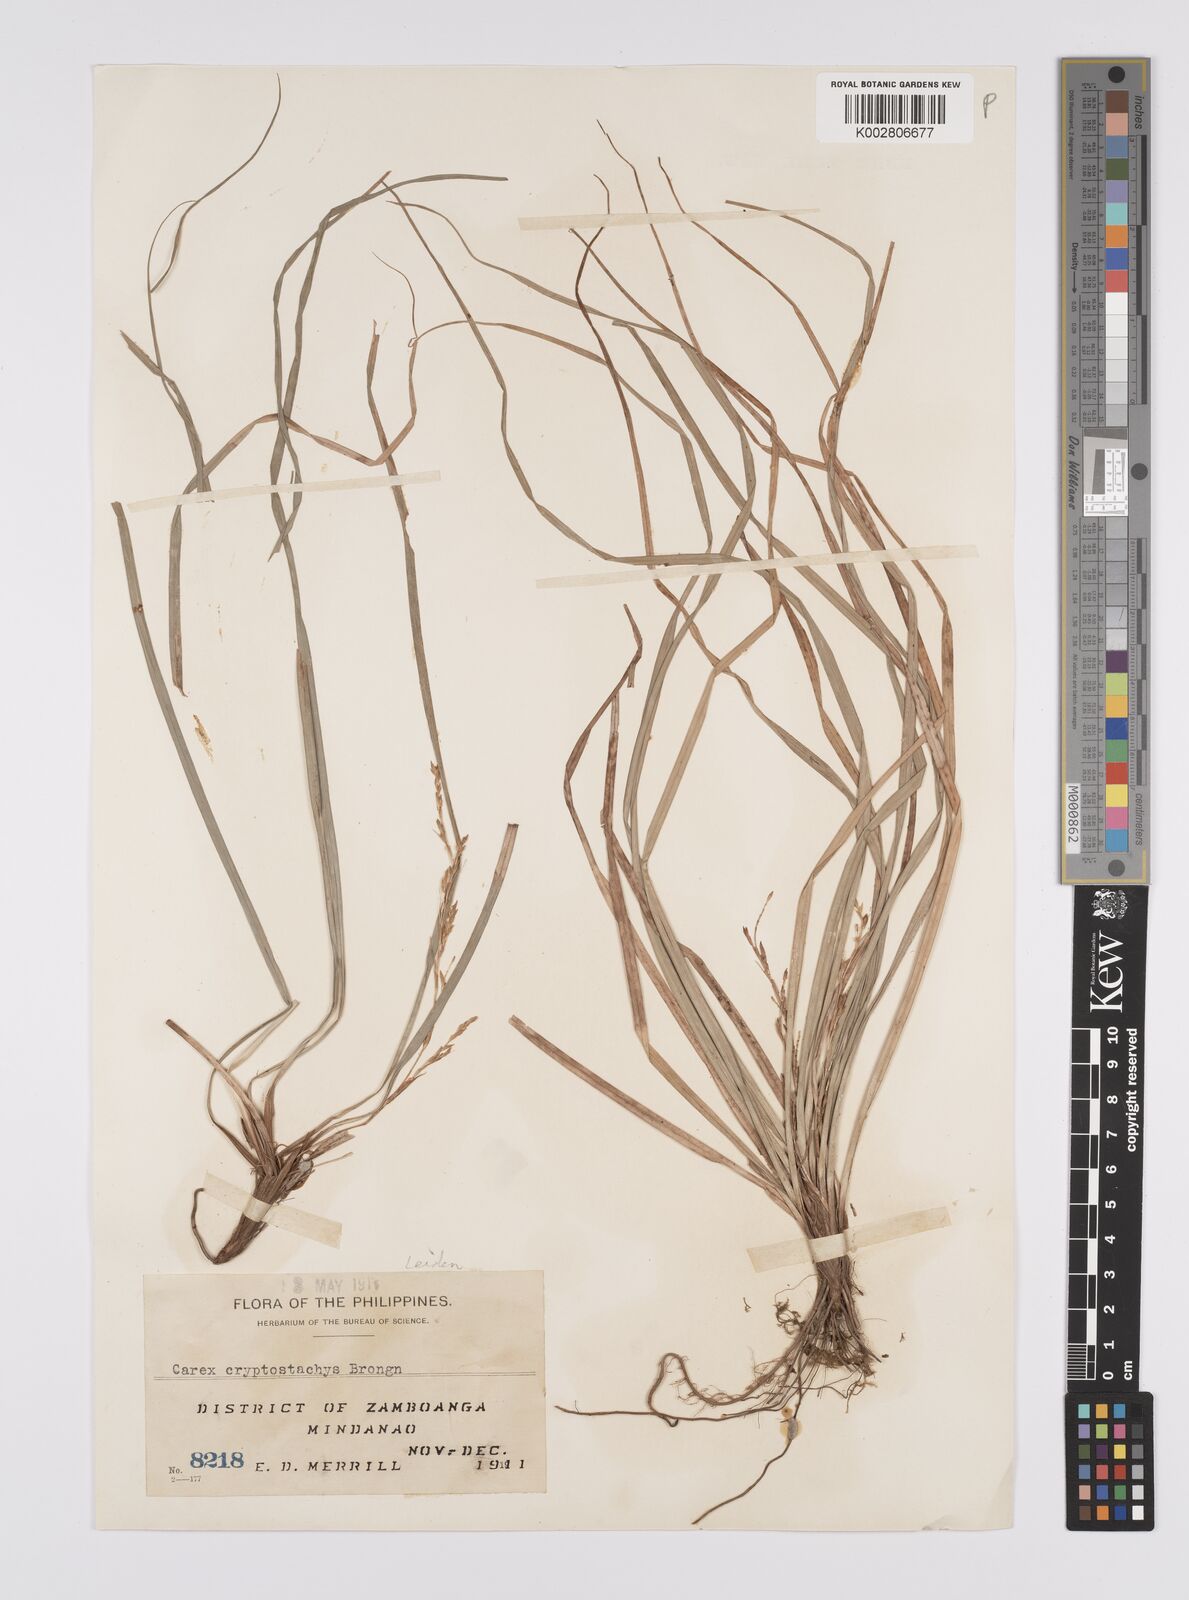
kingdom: Plantae
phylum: Tracheophyta
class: Liliopsida
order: Poales
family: Cyperaceae
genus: Carex
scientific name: Carex cryptostachys
